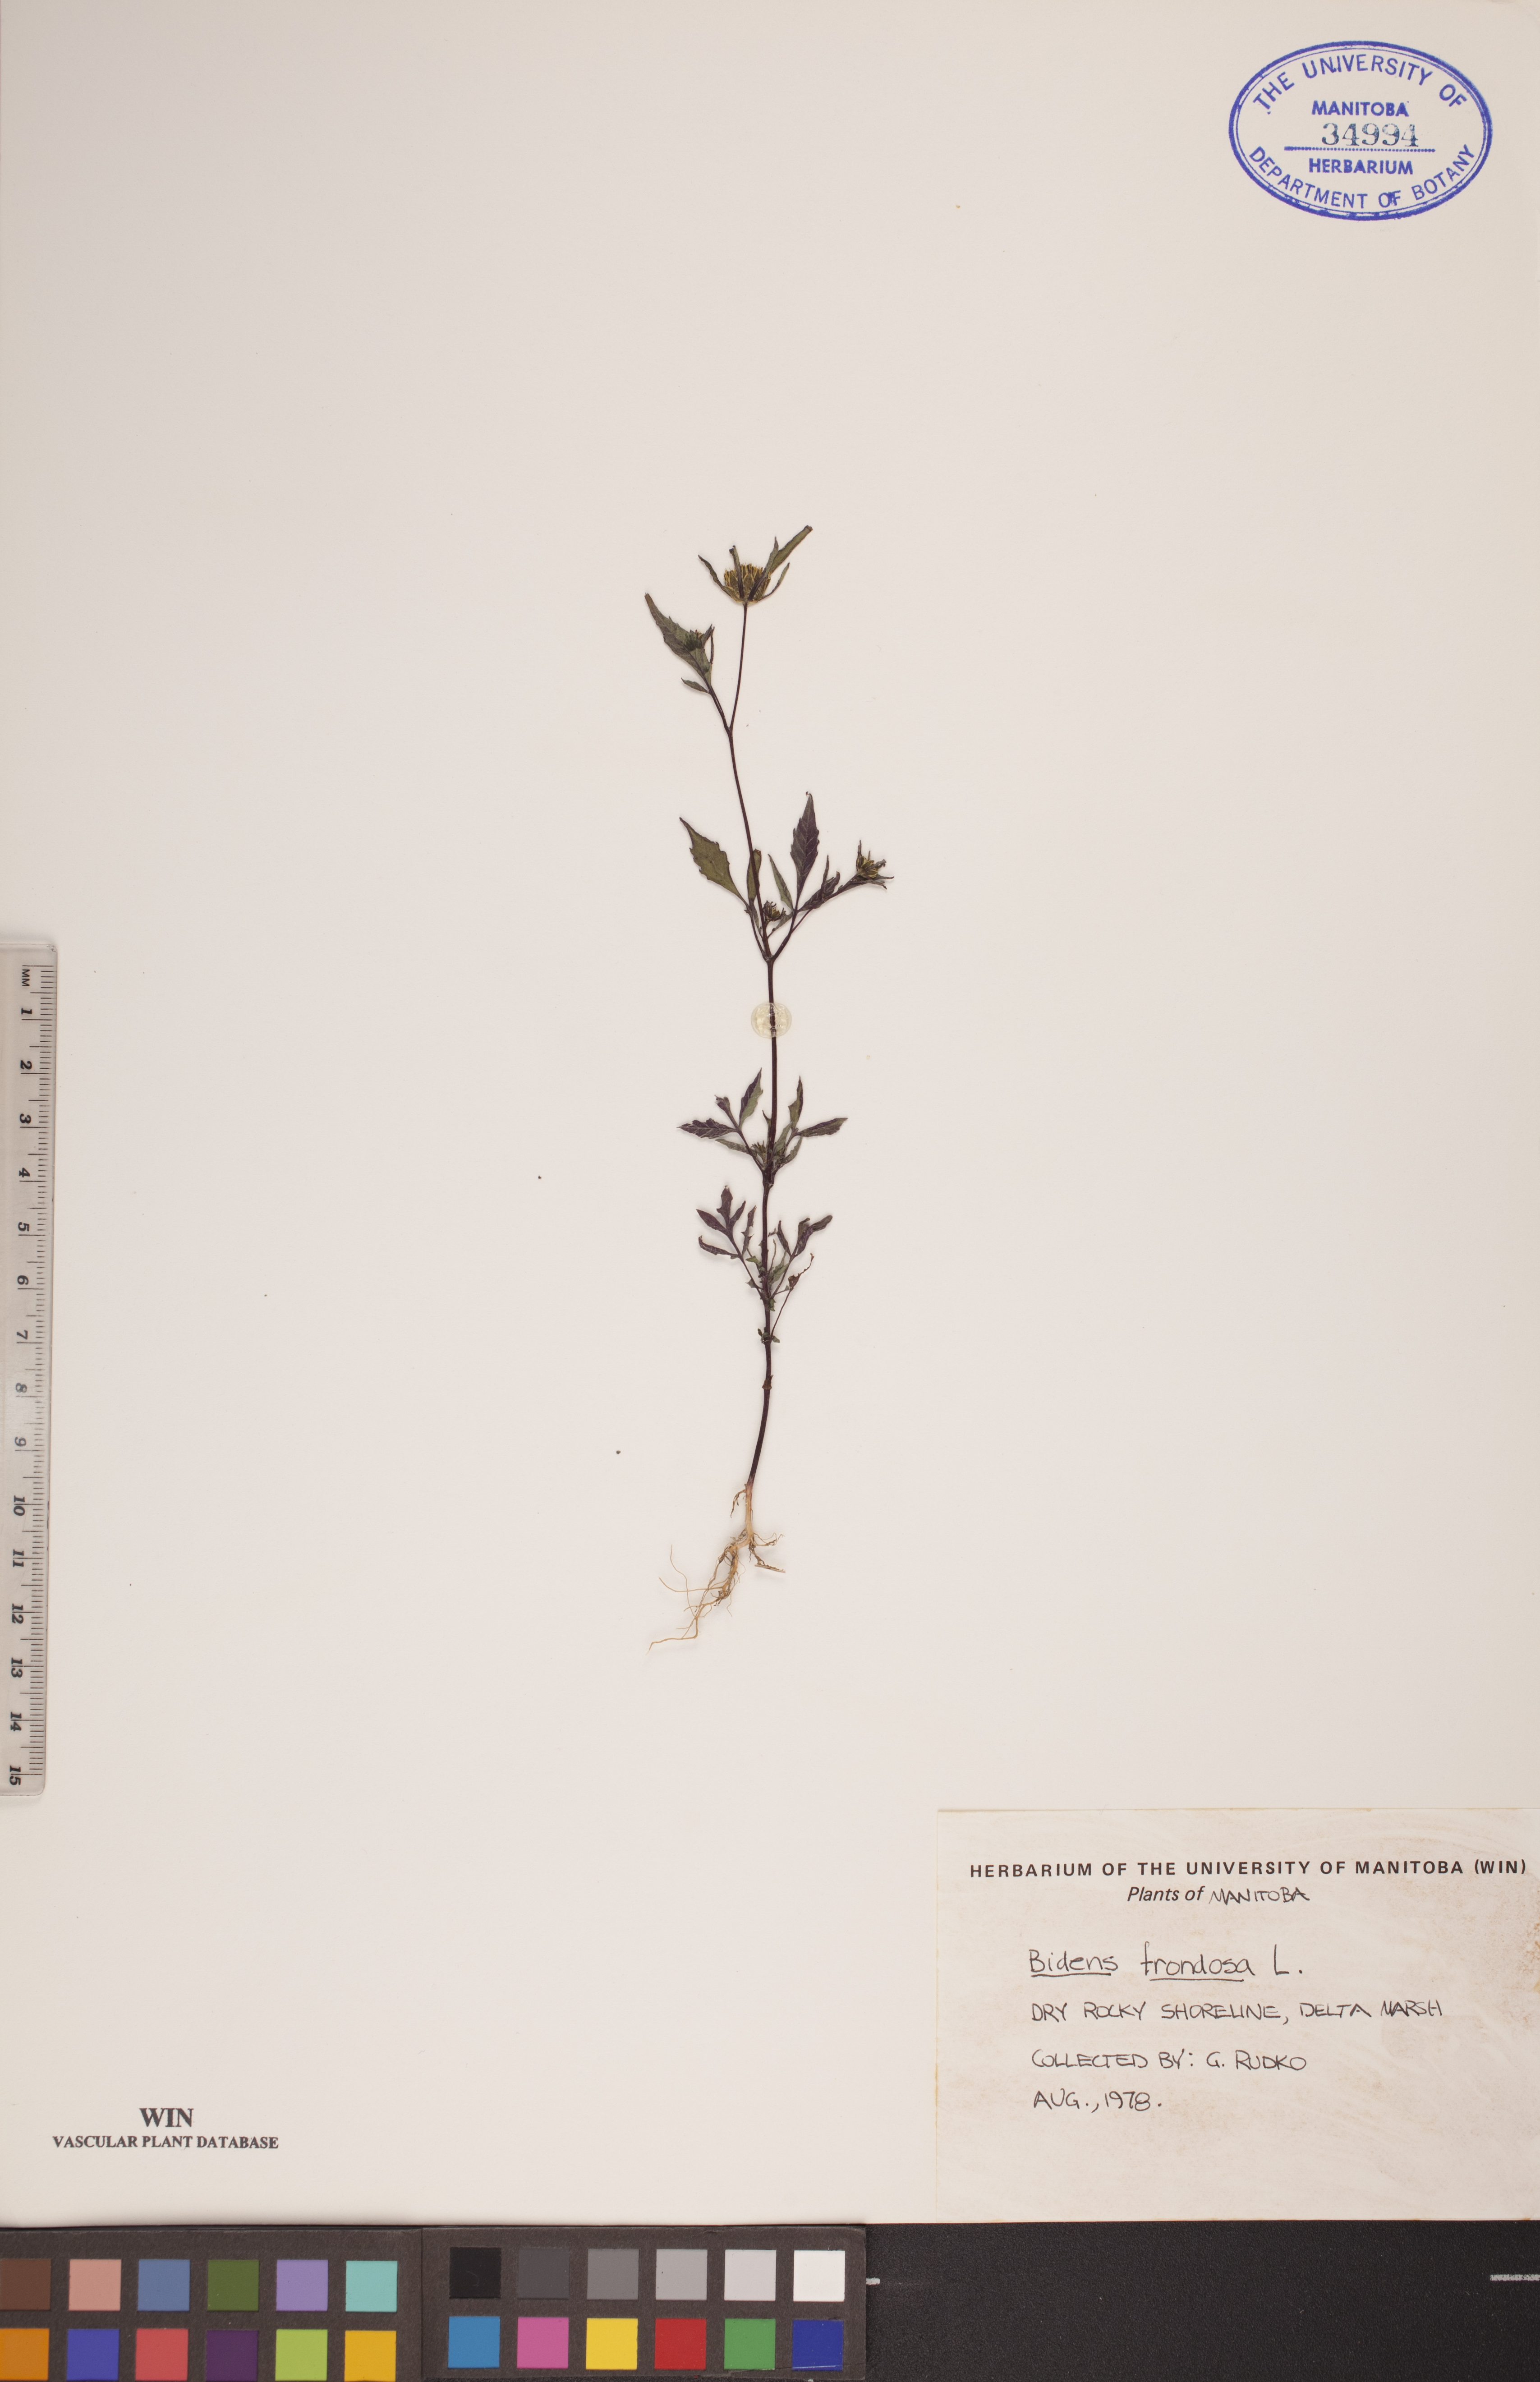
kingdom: Plantae
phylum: Tracheophyta
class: Magnoliopsida
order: Asterales
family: Asteraceae
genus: Bidens
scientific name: Bidens frondosa
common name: Beggarticks
